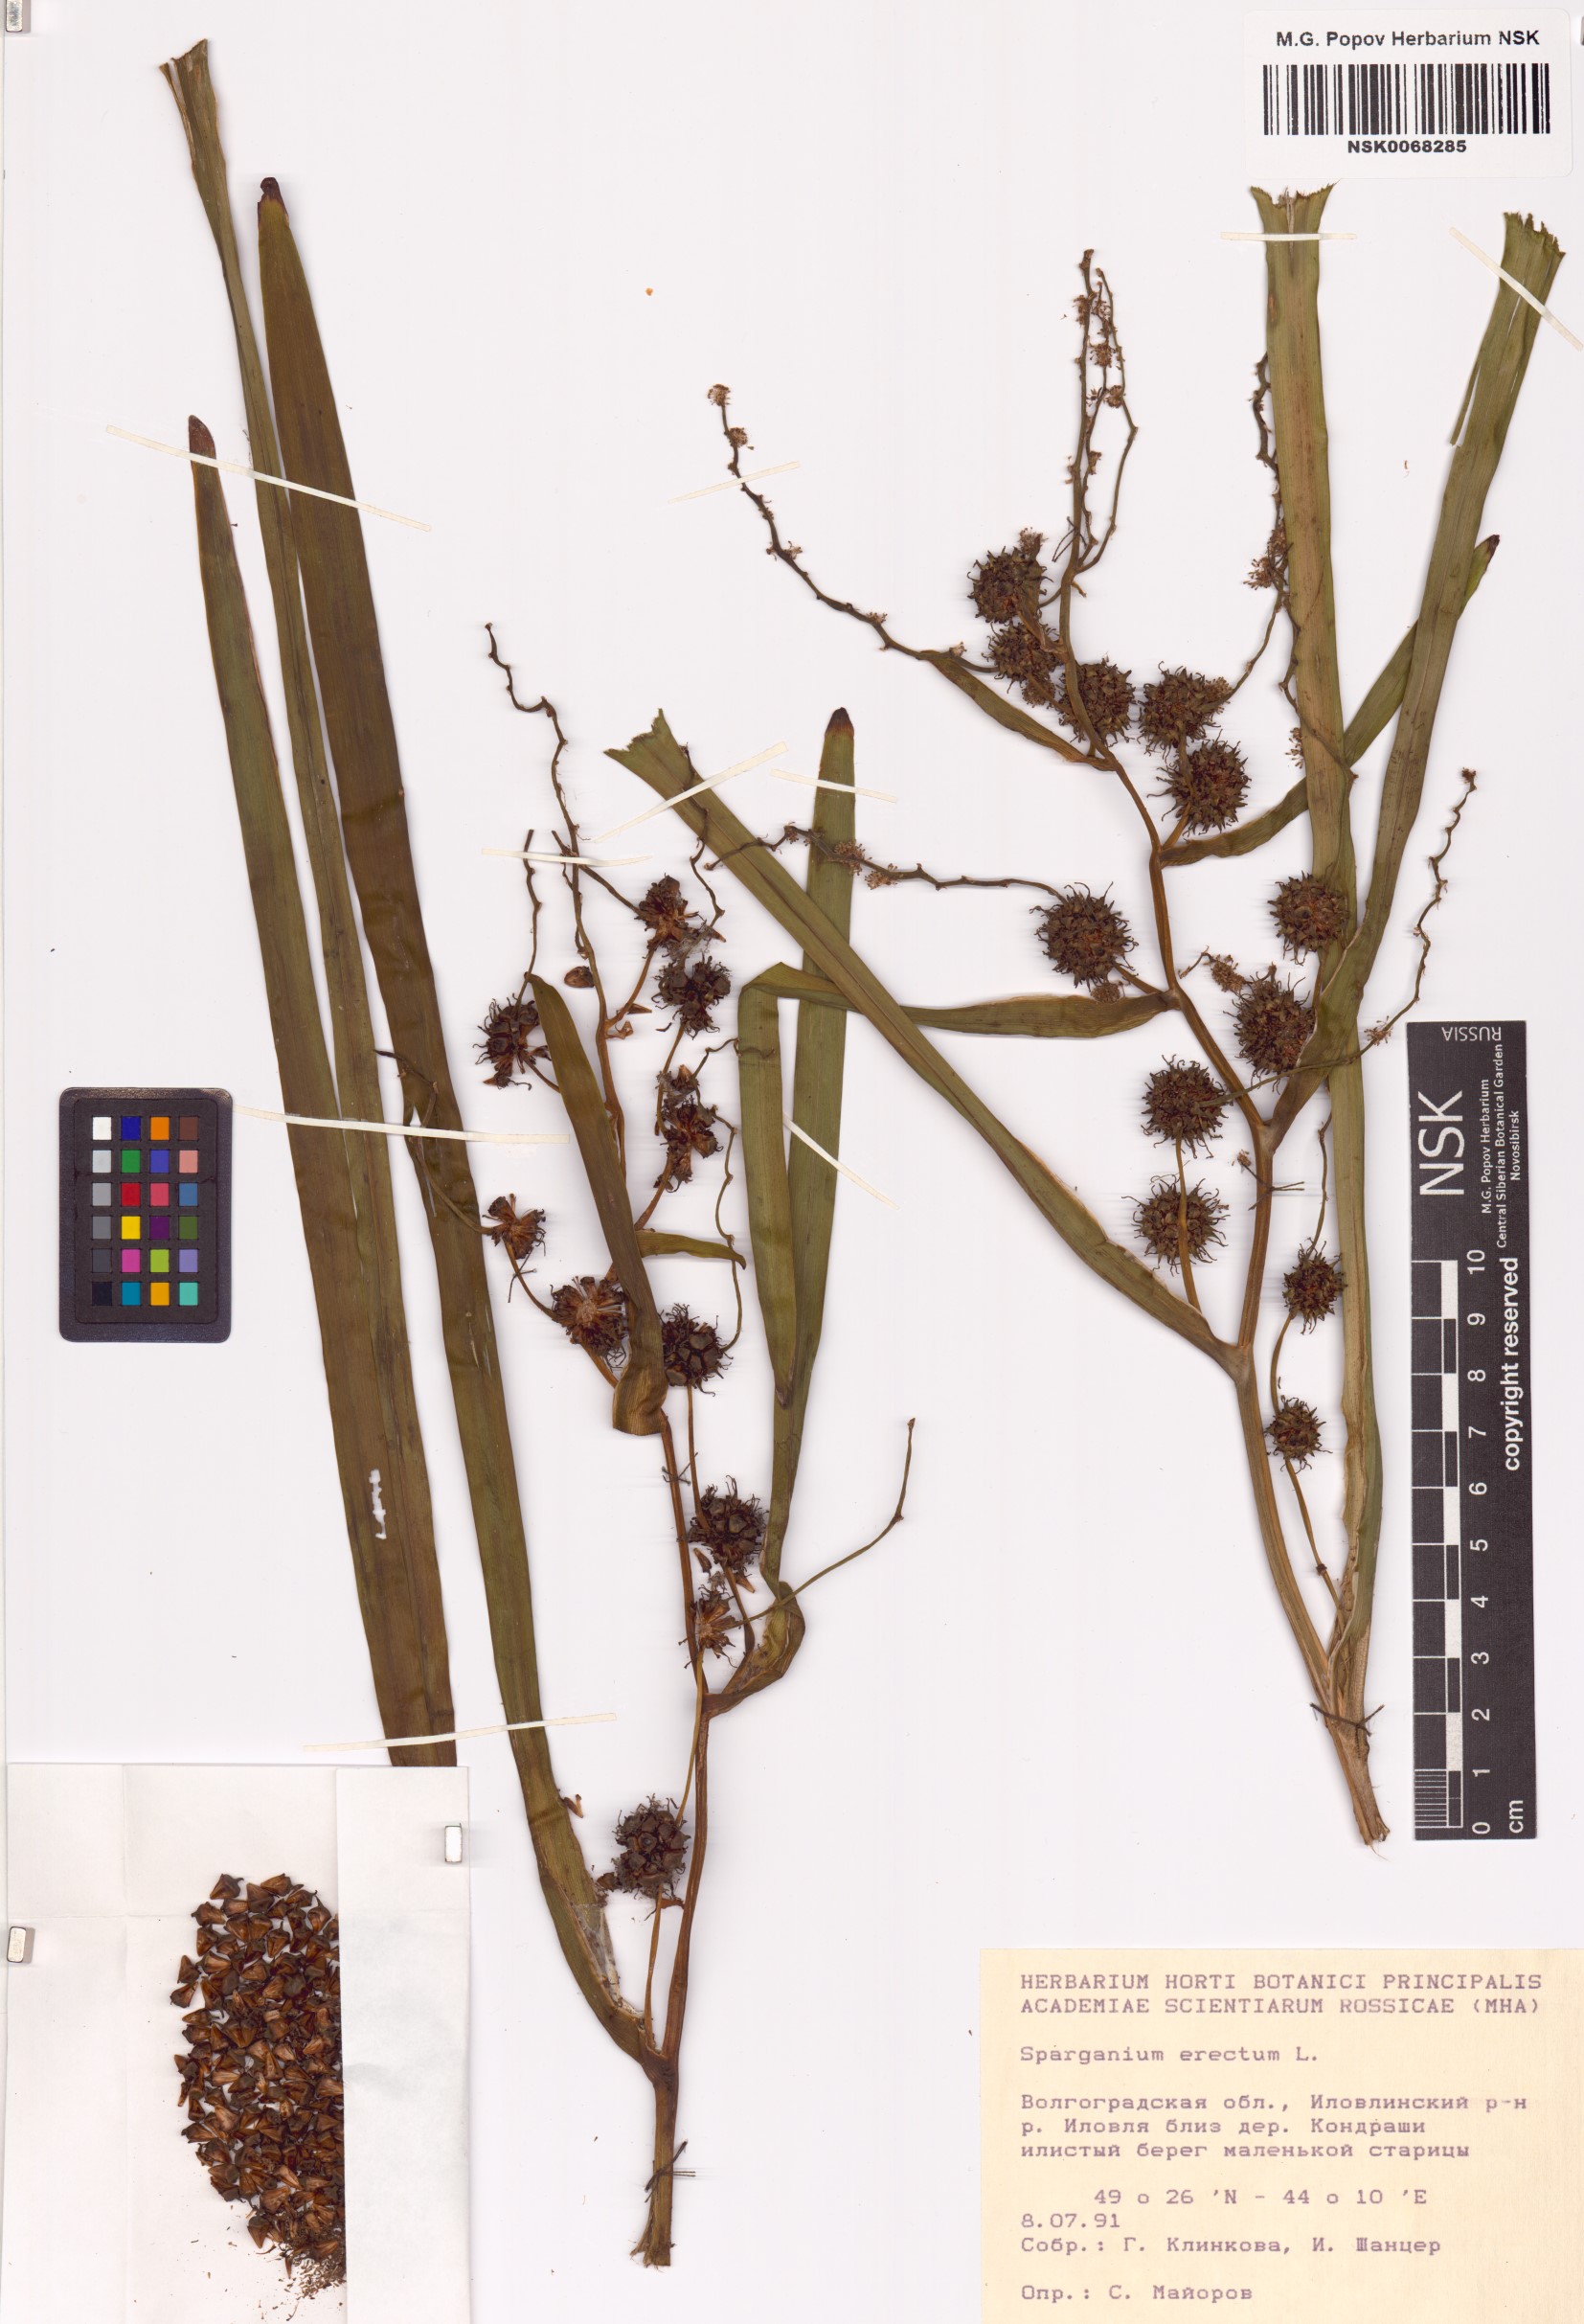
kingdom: Plantae
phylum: Tracheophyta
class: Liliopsida
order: Poales
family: Typhaceae
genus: Sparganium
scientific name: Sparganium erectum
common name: Branched bur-reed
